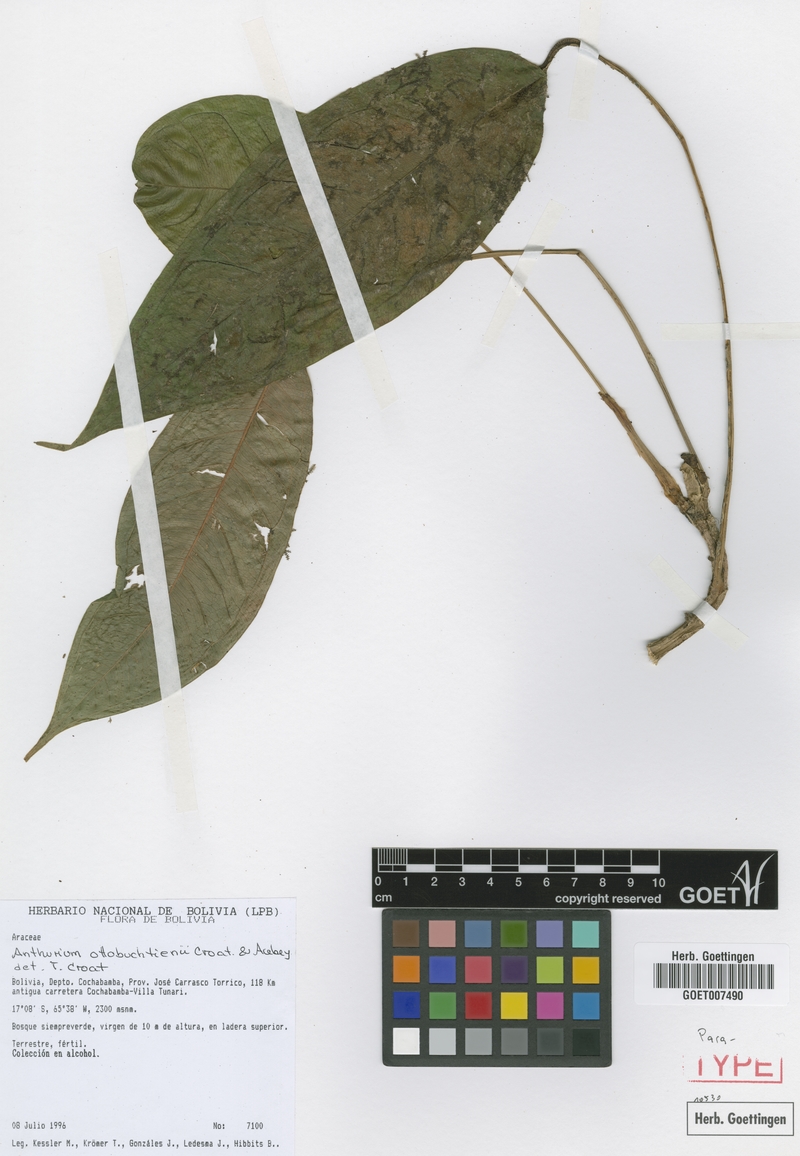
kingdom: Plantae
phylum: Tracheophyta
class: Liliopsida
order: Alismatales
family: Araceae
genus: Anthurium
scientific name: Anthurium ottobuchtienii
